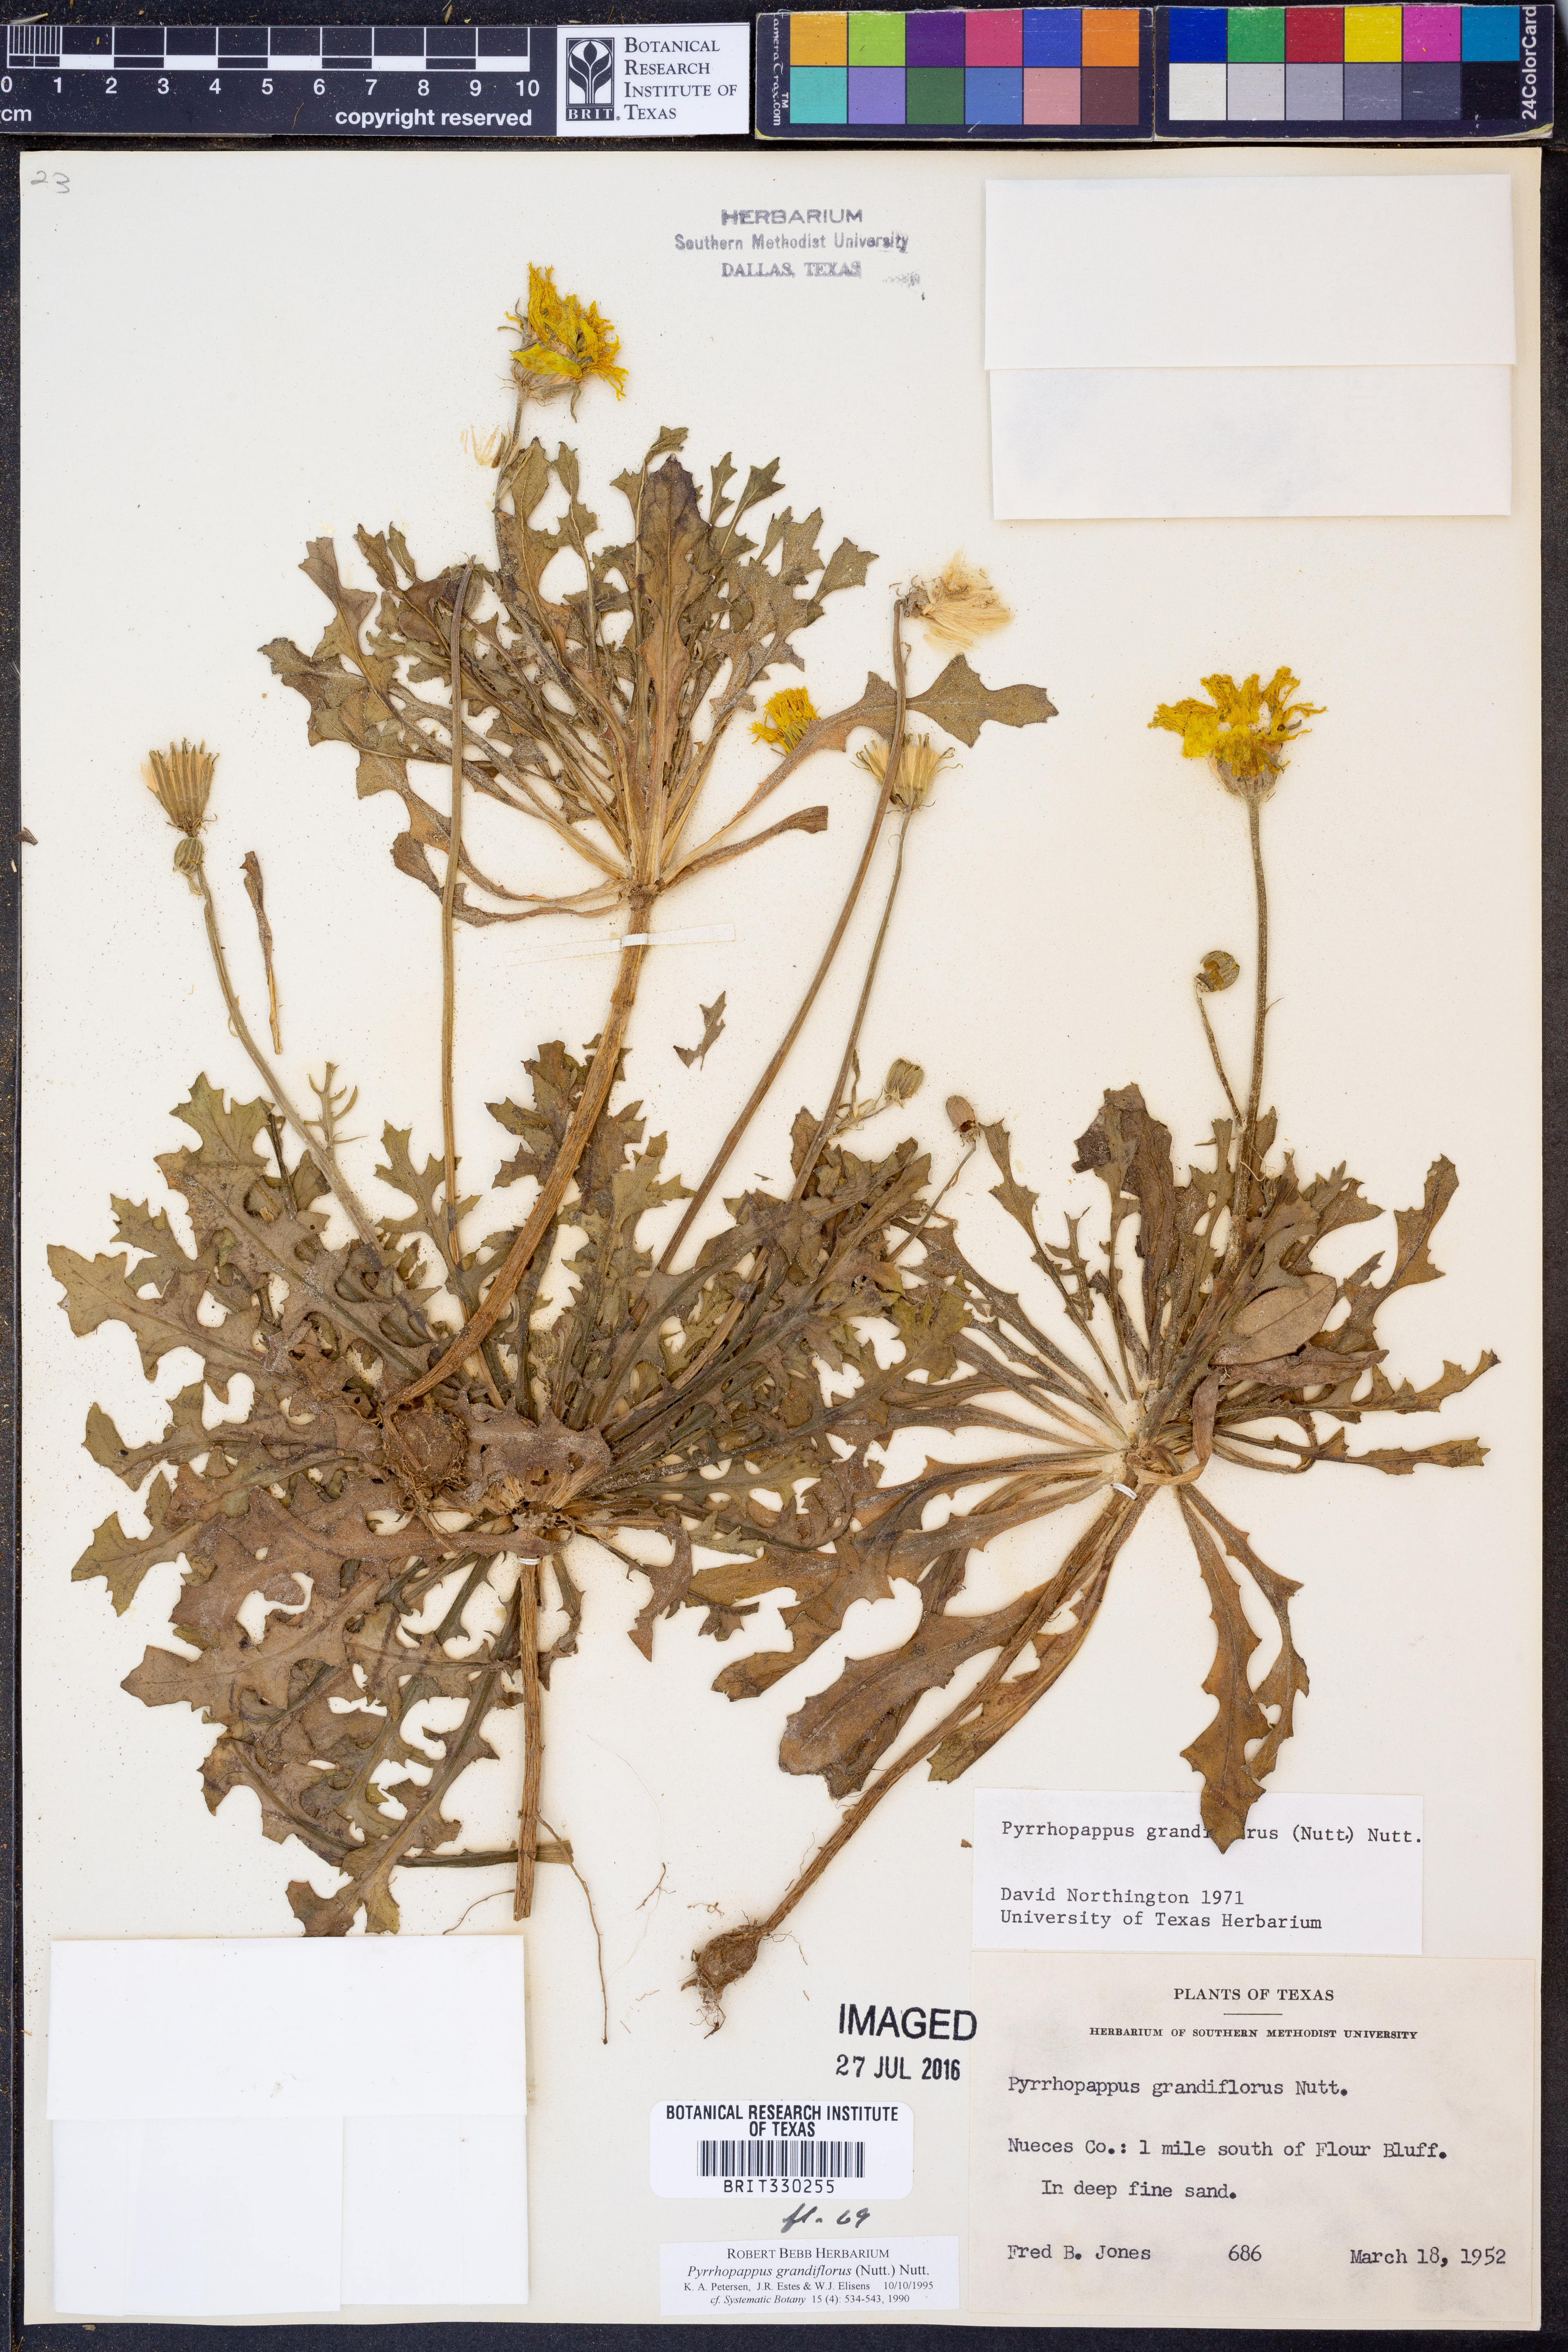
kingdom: Plantae
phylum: Tracheophyta
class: Magnoliopsida
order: Asterales
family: Asteraceae
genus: Pyrrhopappus
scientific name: Pyrrhopappus grandiflorus
